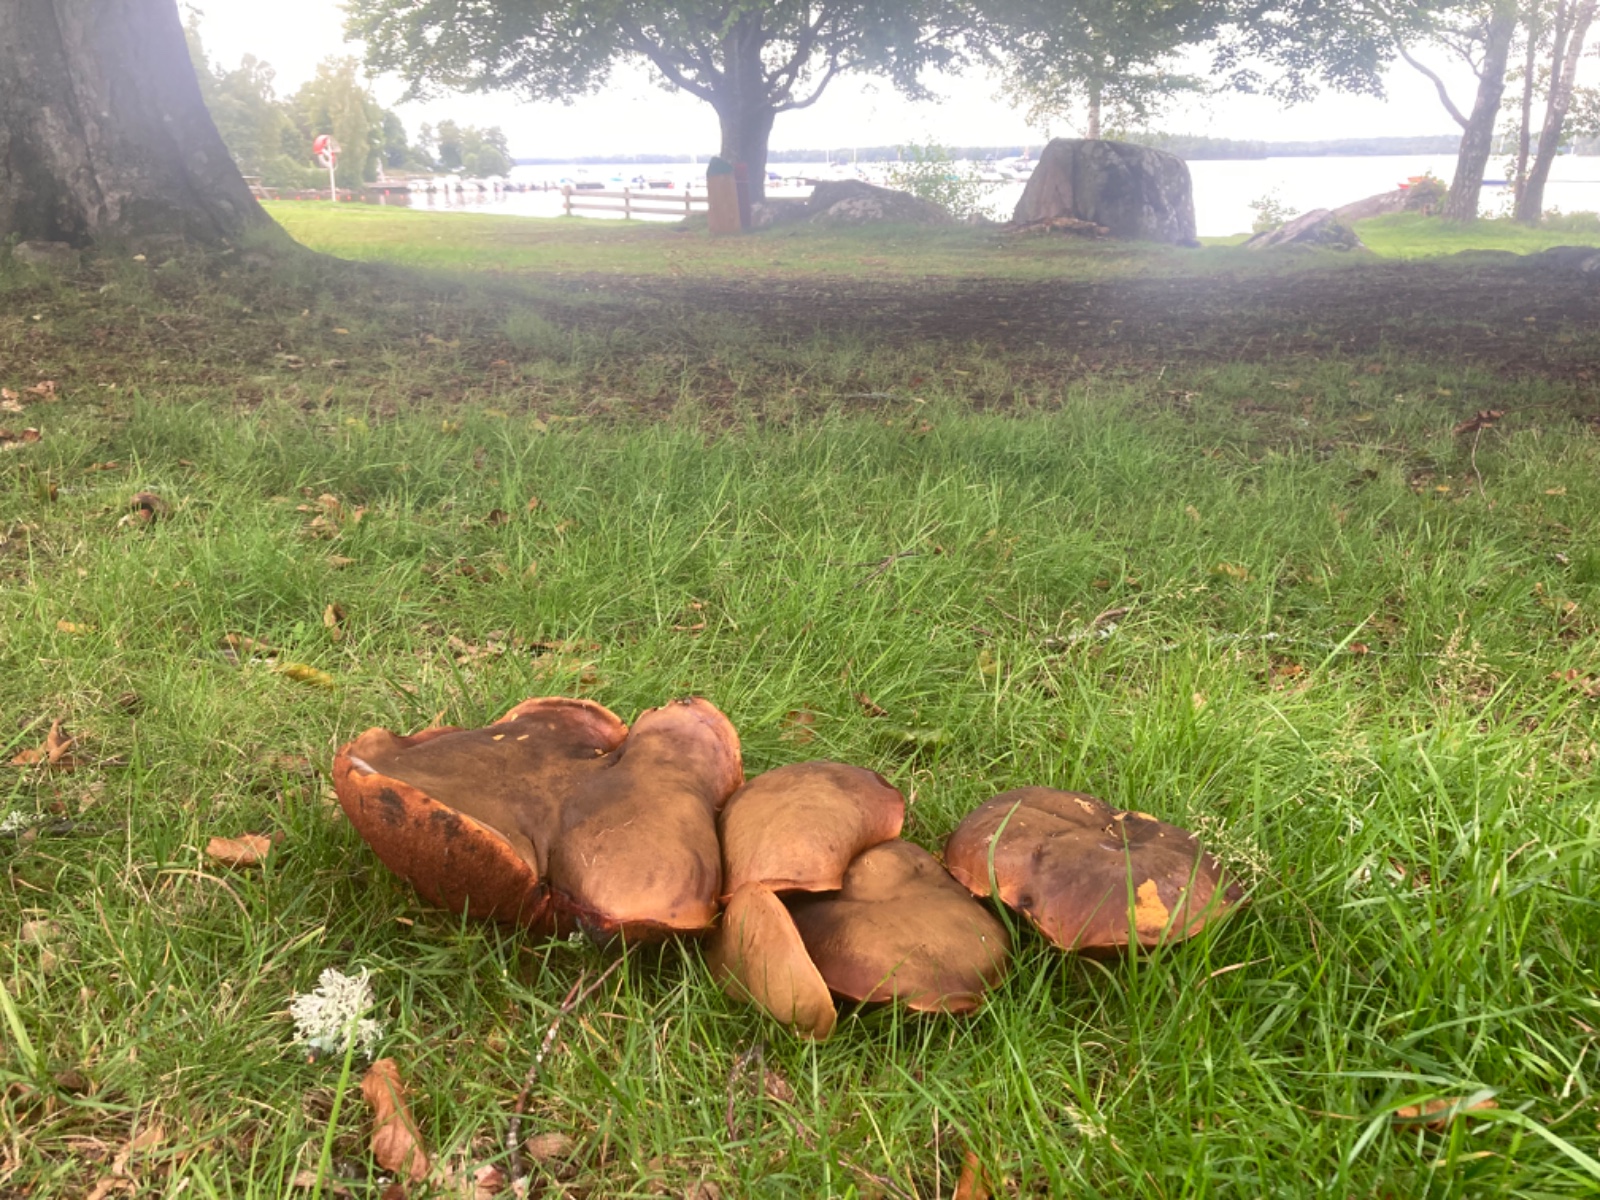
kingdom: Fungi
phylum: Basidiomycota
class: Agaricomycetes
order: Boletales
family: Boletaceae
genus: Neoboletus
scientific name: Neoboletus erythropus
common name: punktstokket indigorørhat
